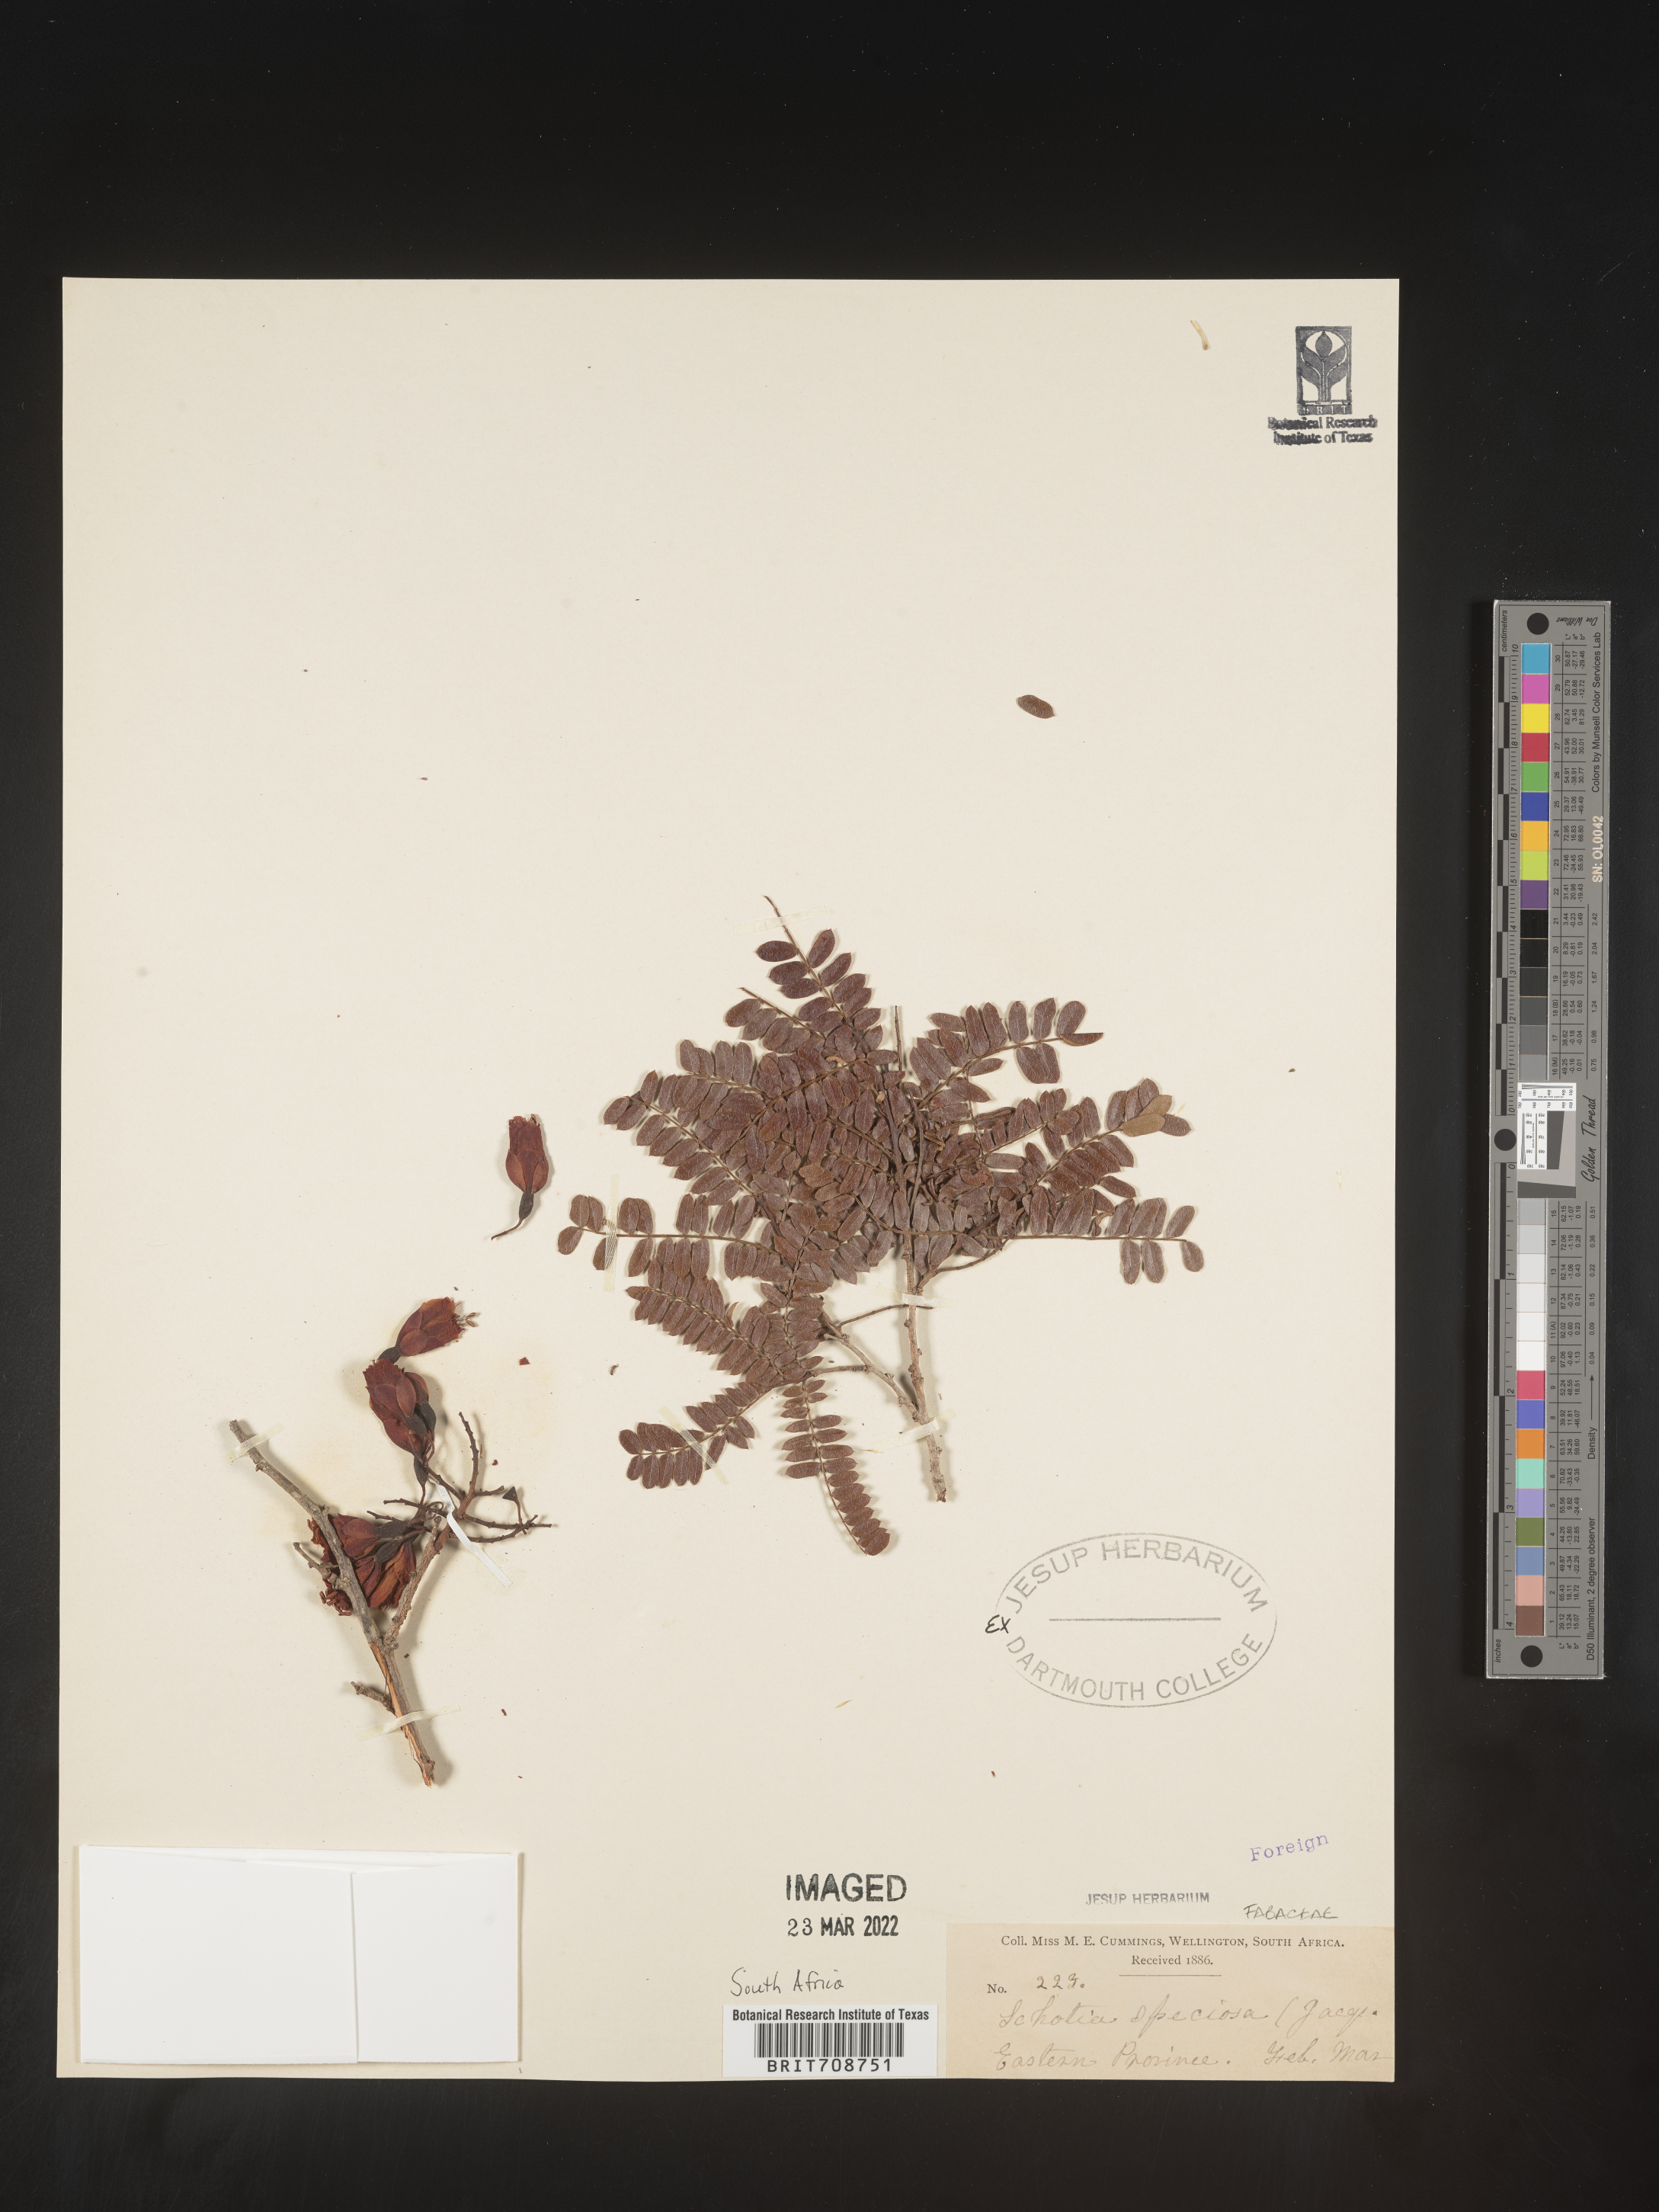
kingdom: Plantae
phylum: Tracheophyta
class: Magnoliopsida
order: Fabales
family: Fabaceae
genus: Schotia
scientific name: Schotia
